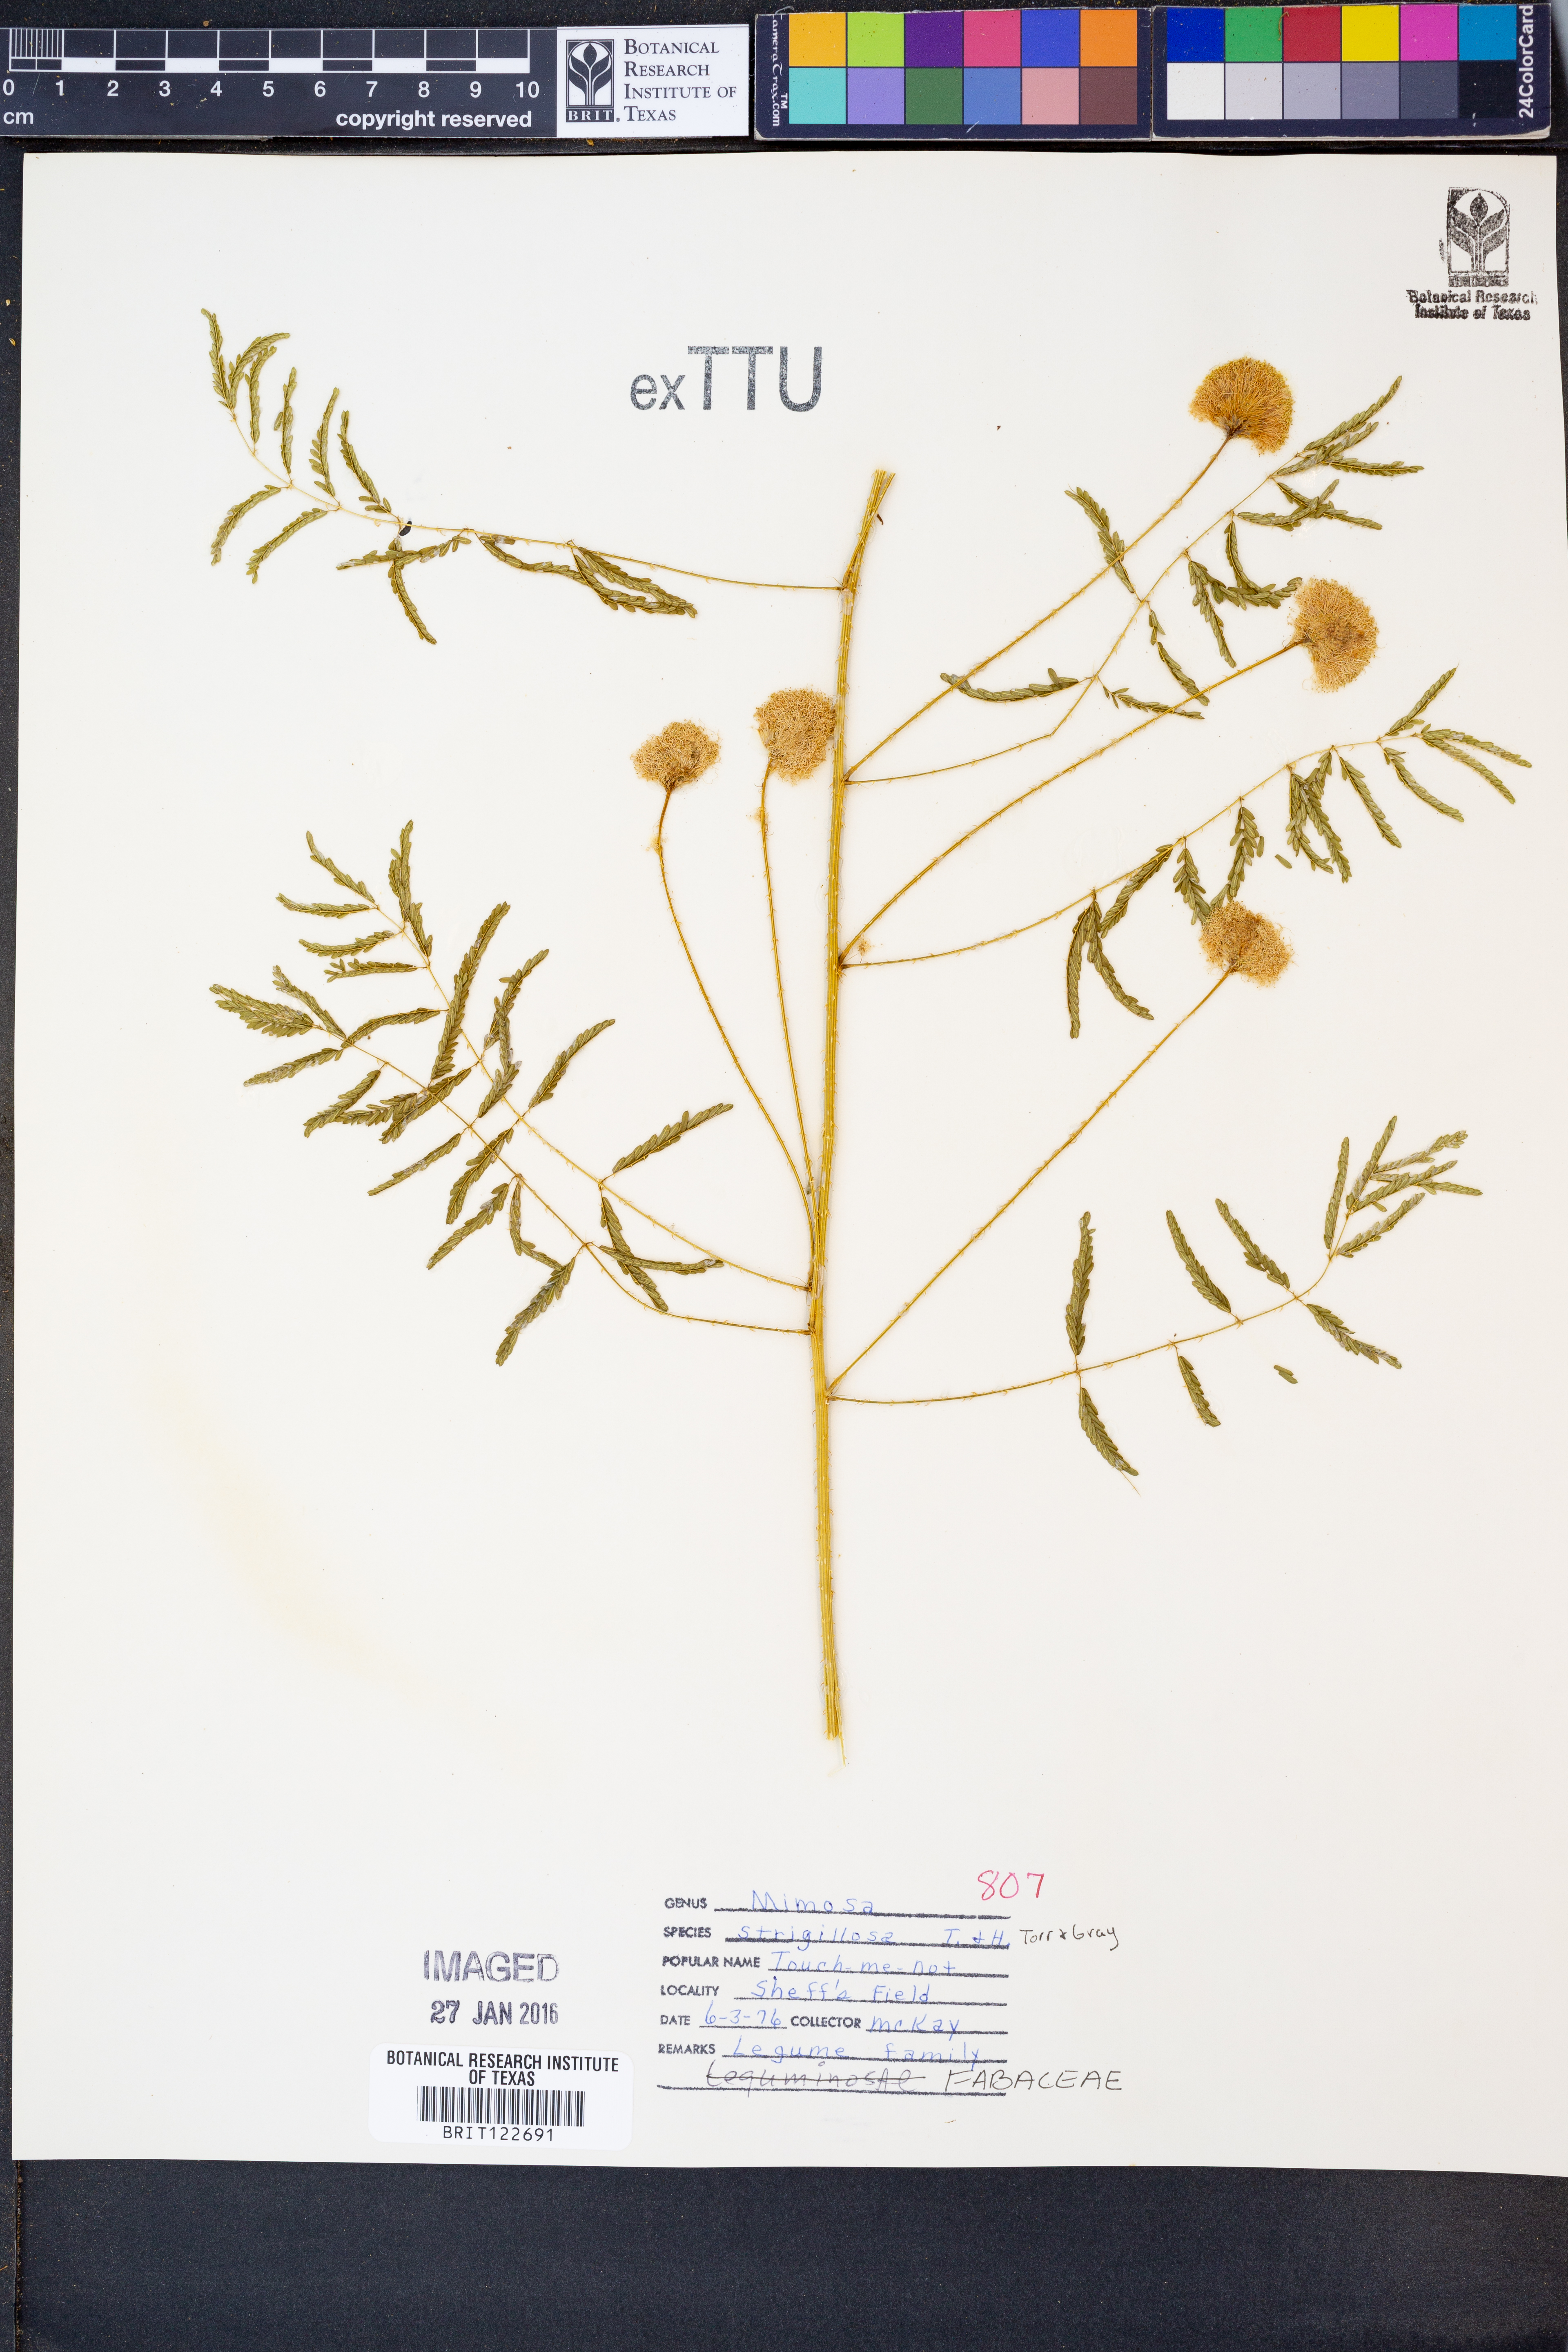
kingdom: Plantae
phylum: Tracheophyta
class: Magnoliopsida
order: Fabales
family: Fabaceae
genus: Mimosa
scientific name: Mimosa strigillosa
